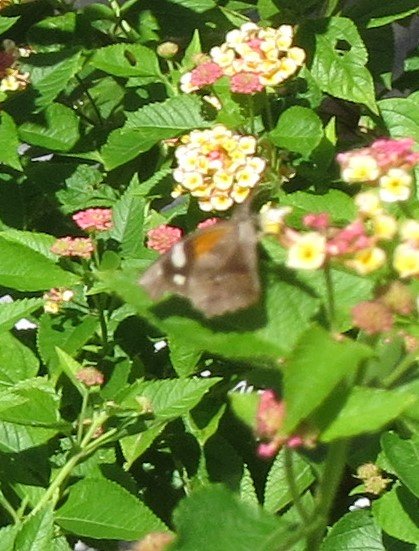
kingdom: Animalia
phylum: Arthropoda
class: Insecta
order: Lepidoptera
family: Nymphalidae
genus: Libytheana
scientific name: Libytheana carinenta
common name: American Snout
